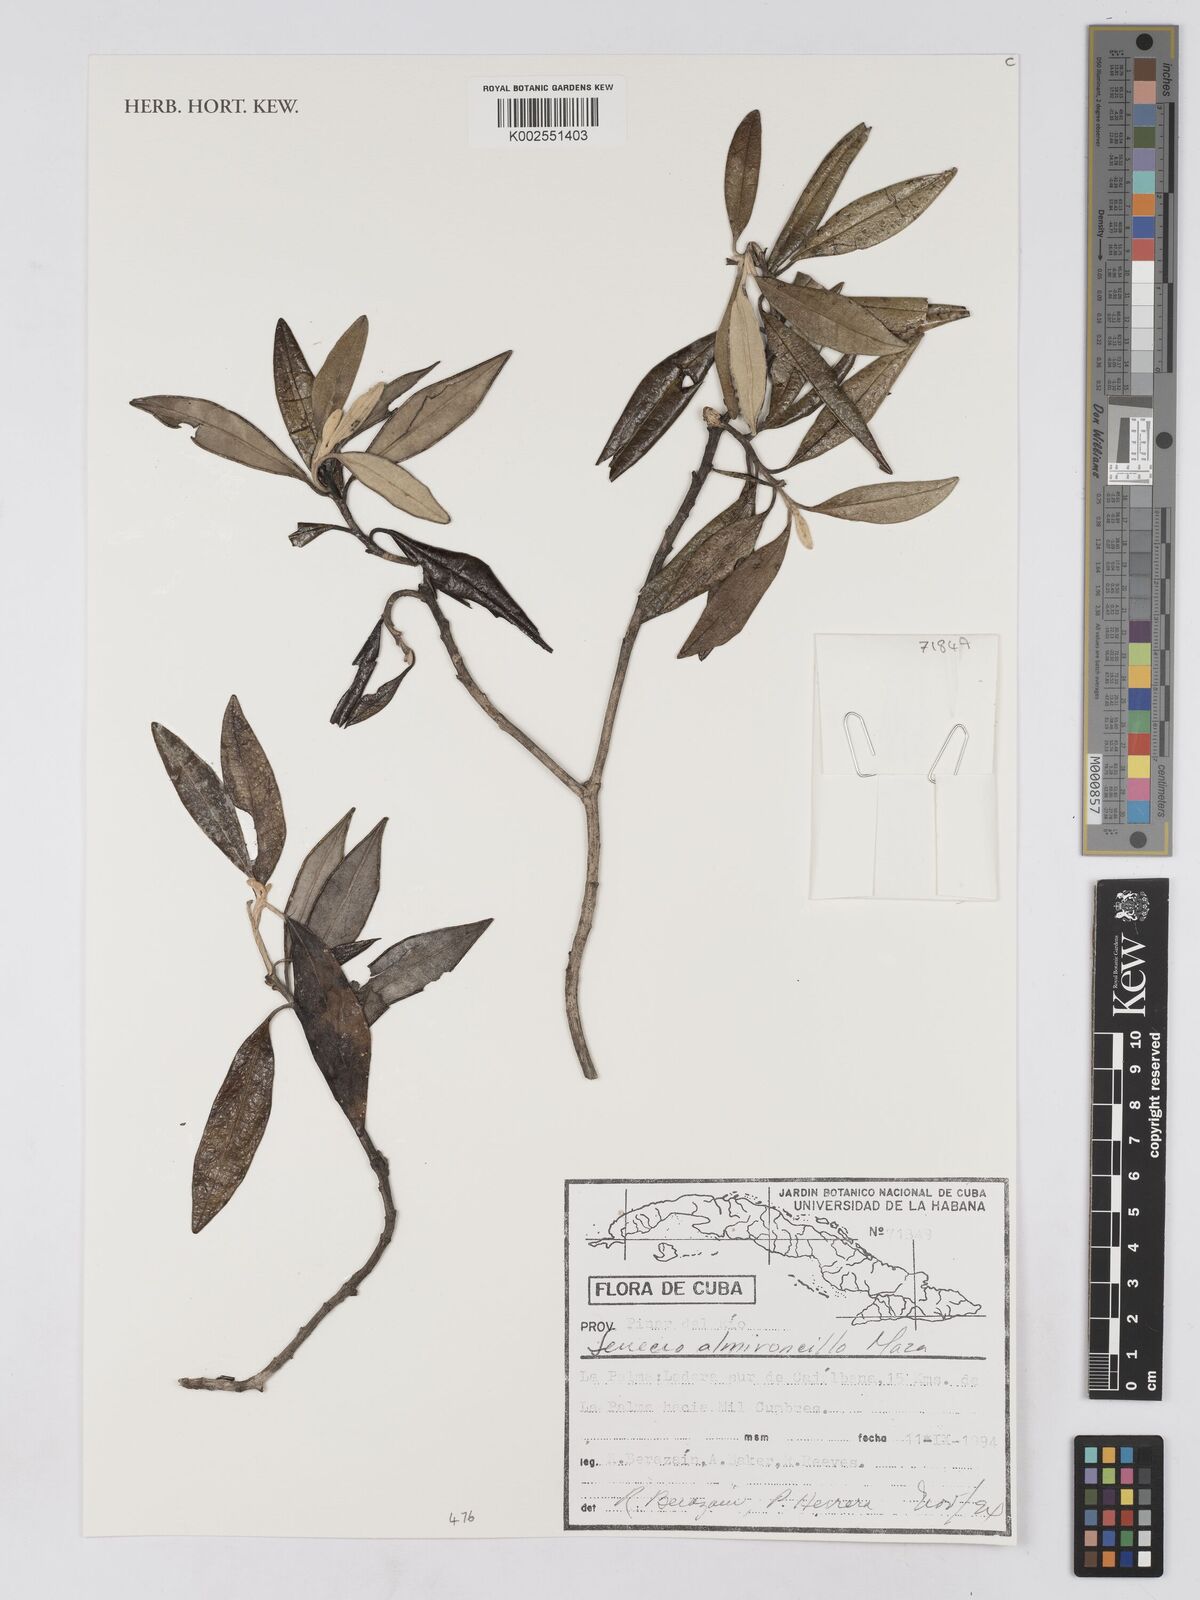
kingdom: Plantae
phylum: Tracheophyta
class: Magnoliopsida
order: Asterales
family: Asteraceae
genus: Antillanthus
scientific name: Antillanthus discolor
